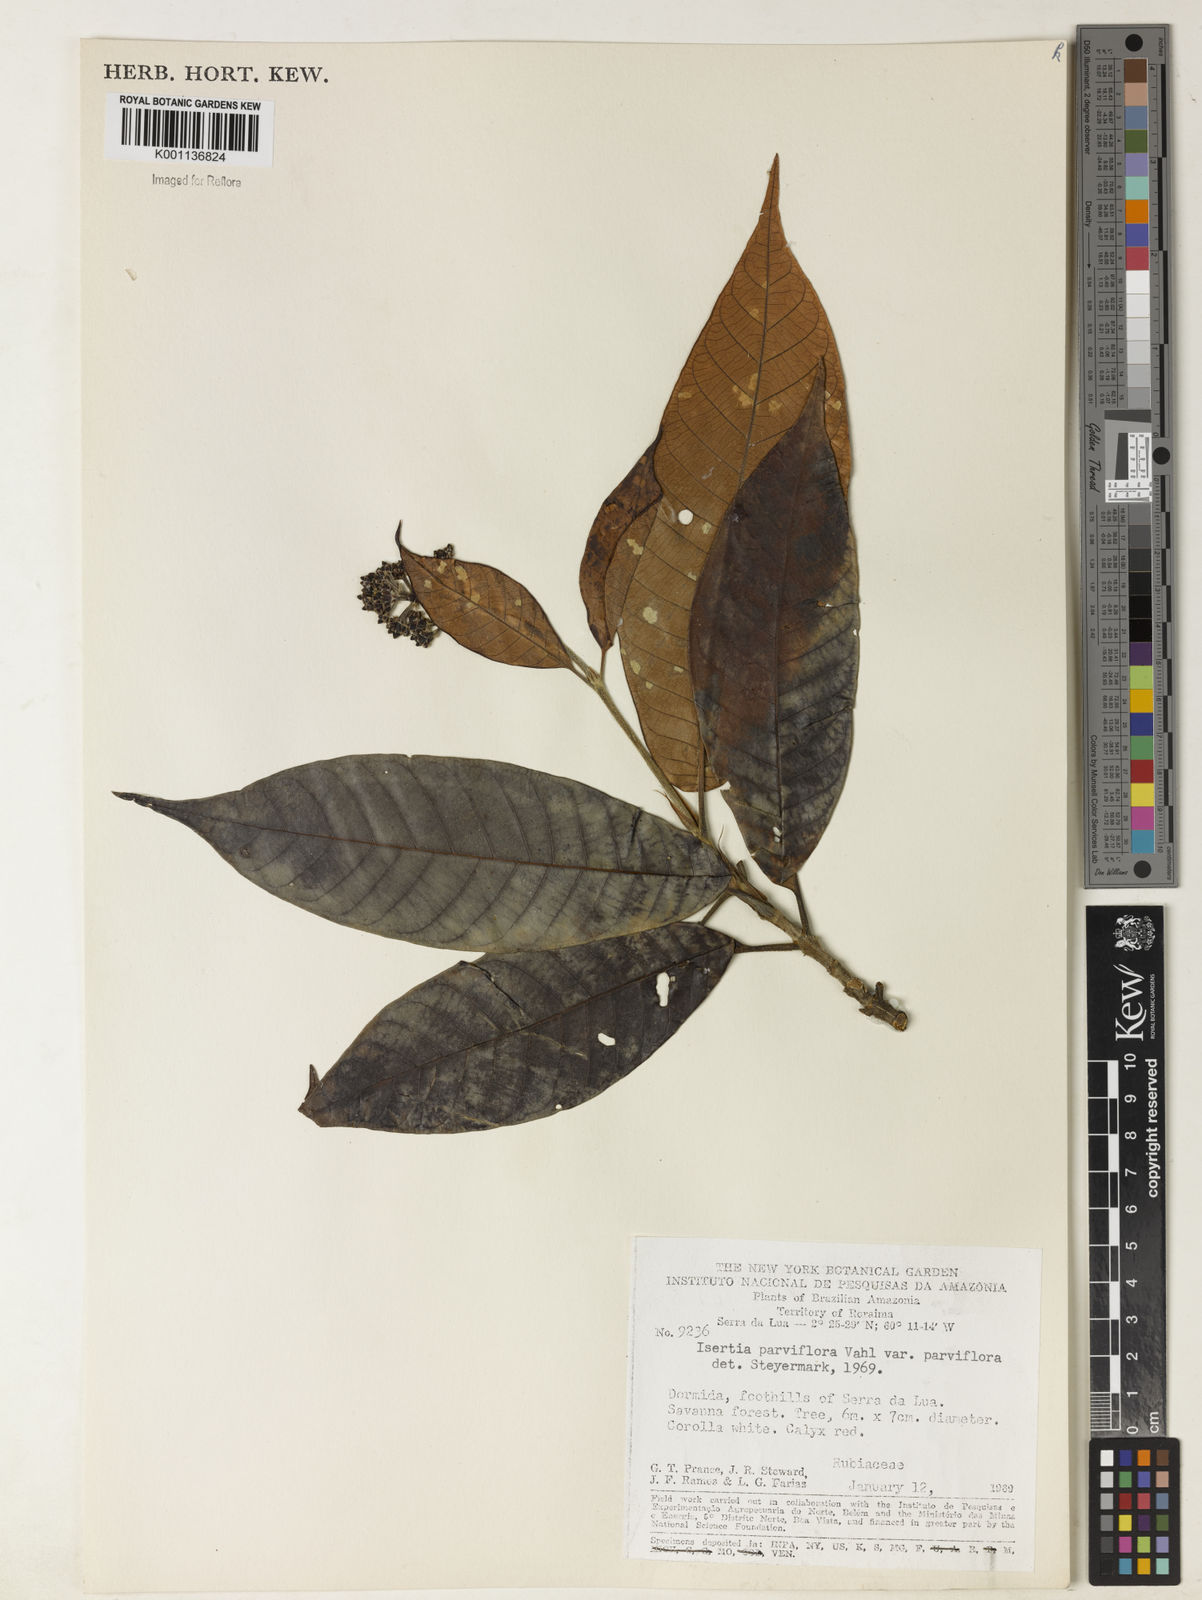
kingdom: Plantae
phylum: Tracheophyta
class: Magnoliopsida
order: Gentianales
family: Rubiaceae
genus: Isertia
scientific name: Isertia parviflora
